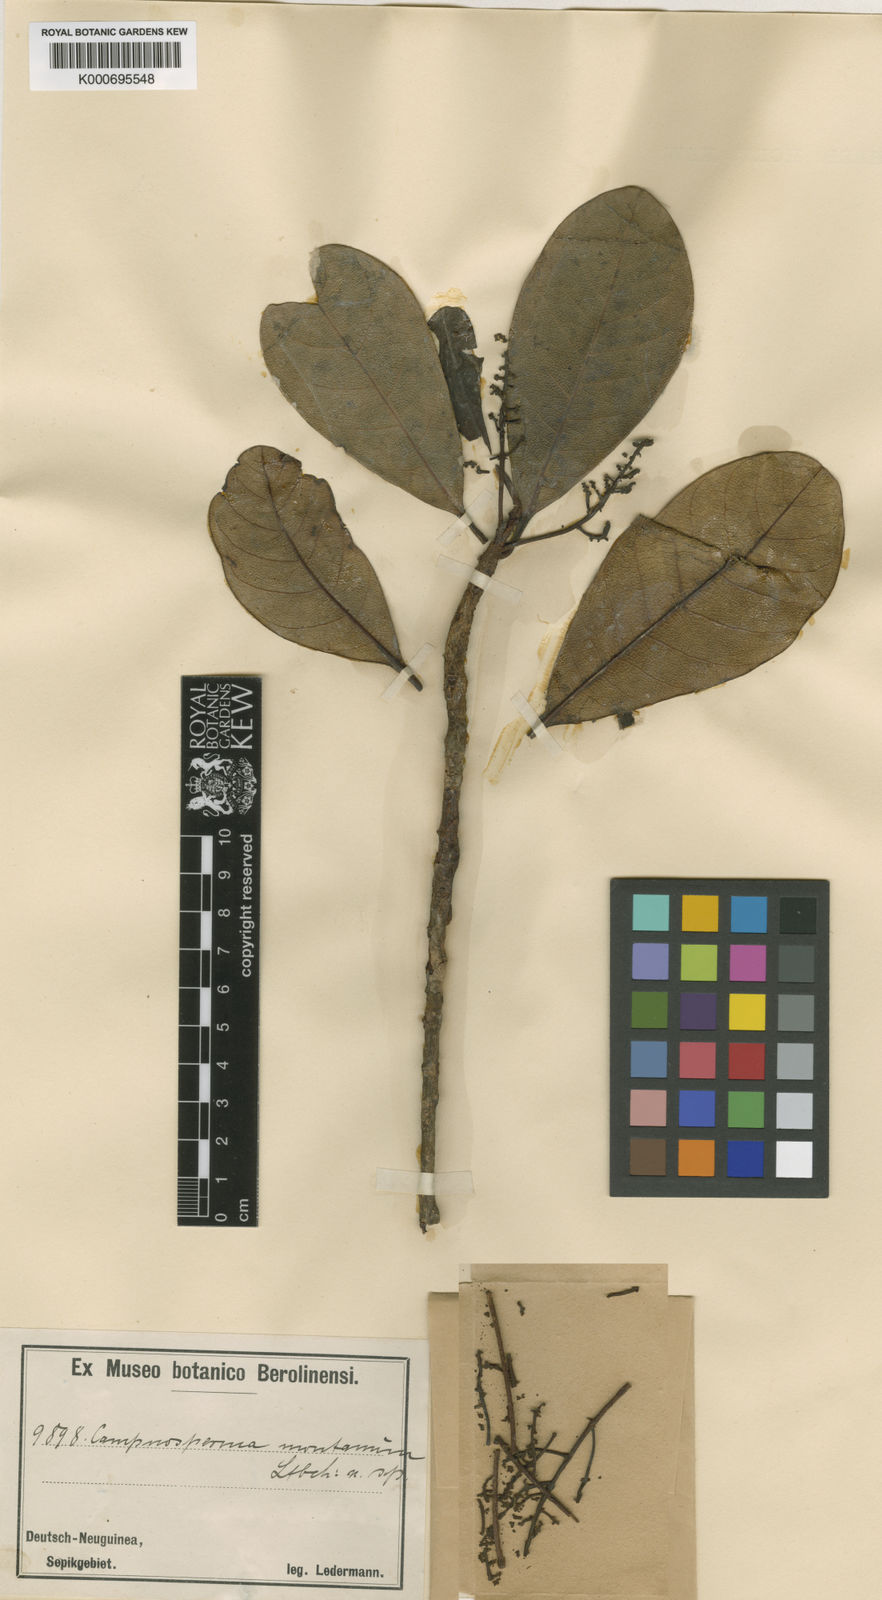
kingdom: Plantae
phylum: Tracheophyta
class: Magnoliopsida
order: Sapindales
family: Anacardiaceae
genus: Campnosperma
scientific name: Campnosperma
